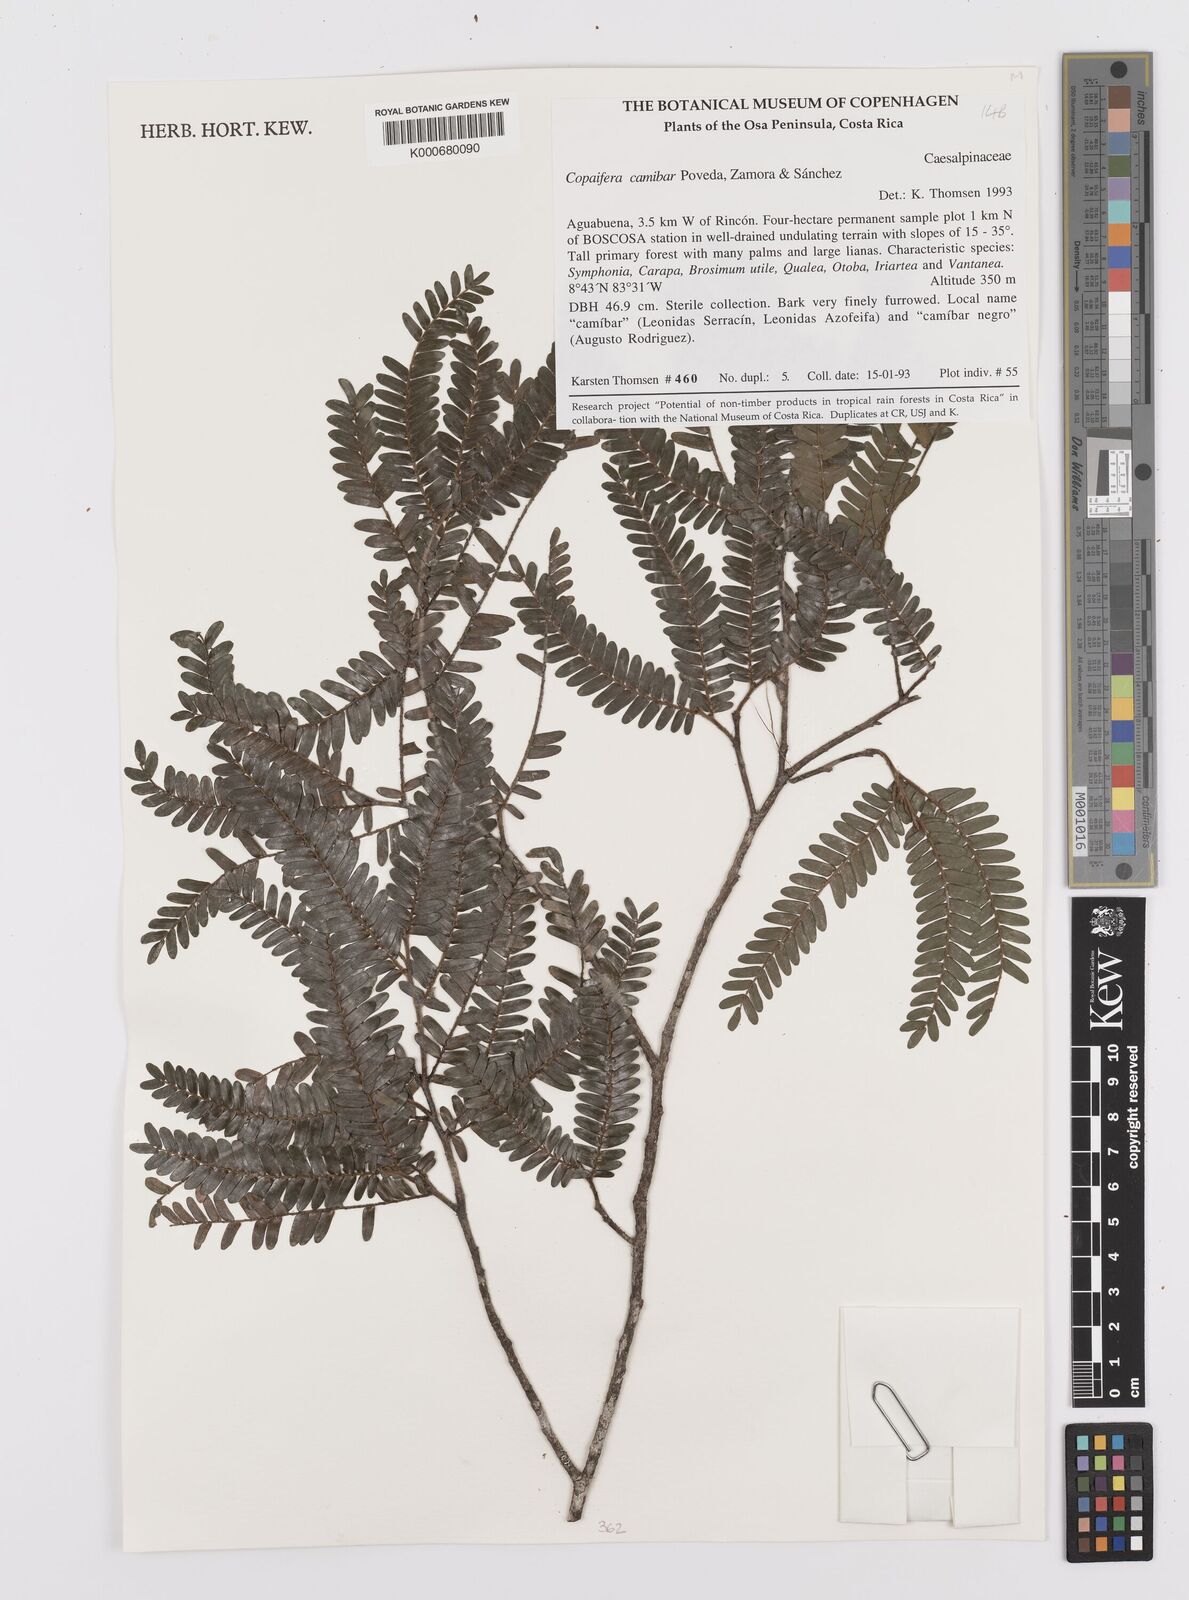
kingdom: Plantae
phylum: Tracheophyta
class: Magnoliopsida
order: Fabales
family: Fabaceae
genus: Copaifera
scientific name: Copaifera
